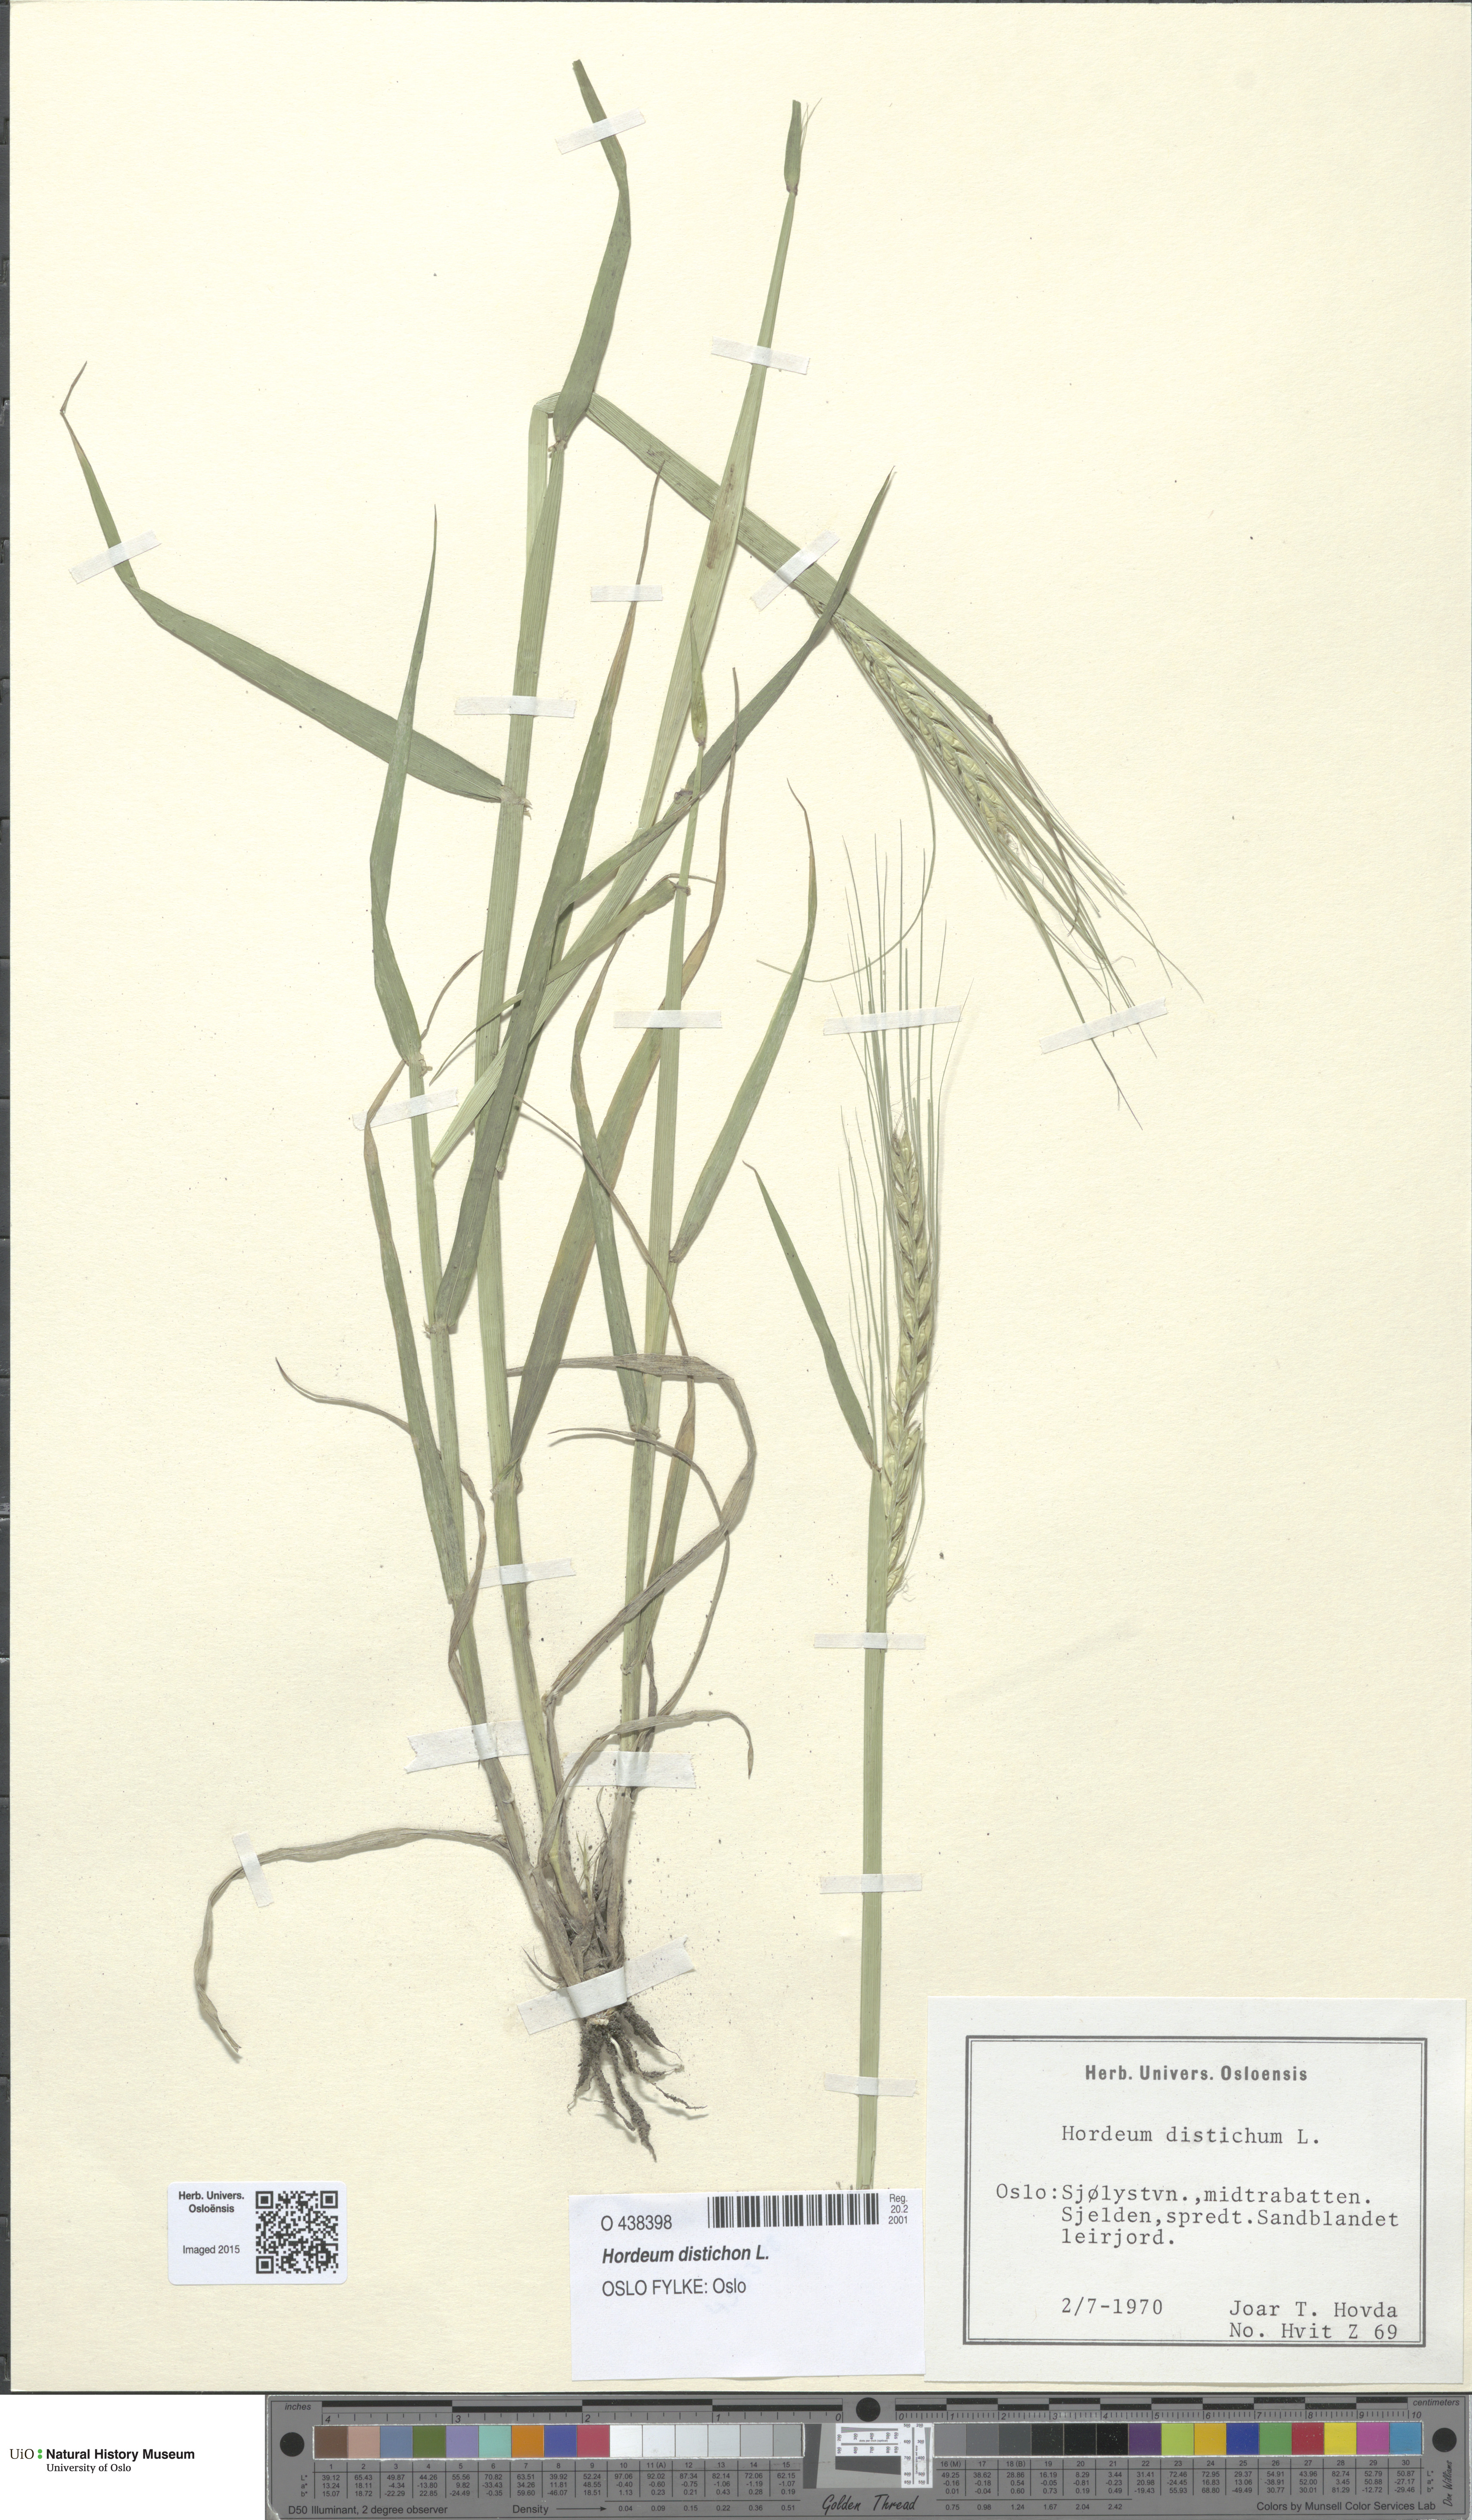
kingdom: Plantae
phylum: Tracheophyta
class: Liliopsida
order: Poales
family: Poaceae
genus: Hordeum
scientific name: Hordeum distichon
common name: Two-rowed barley
